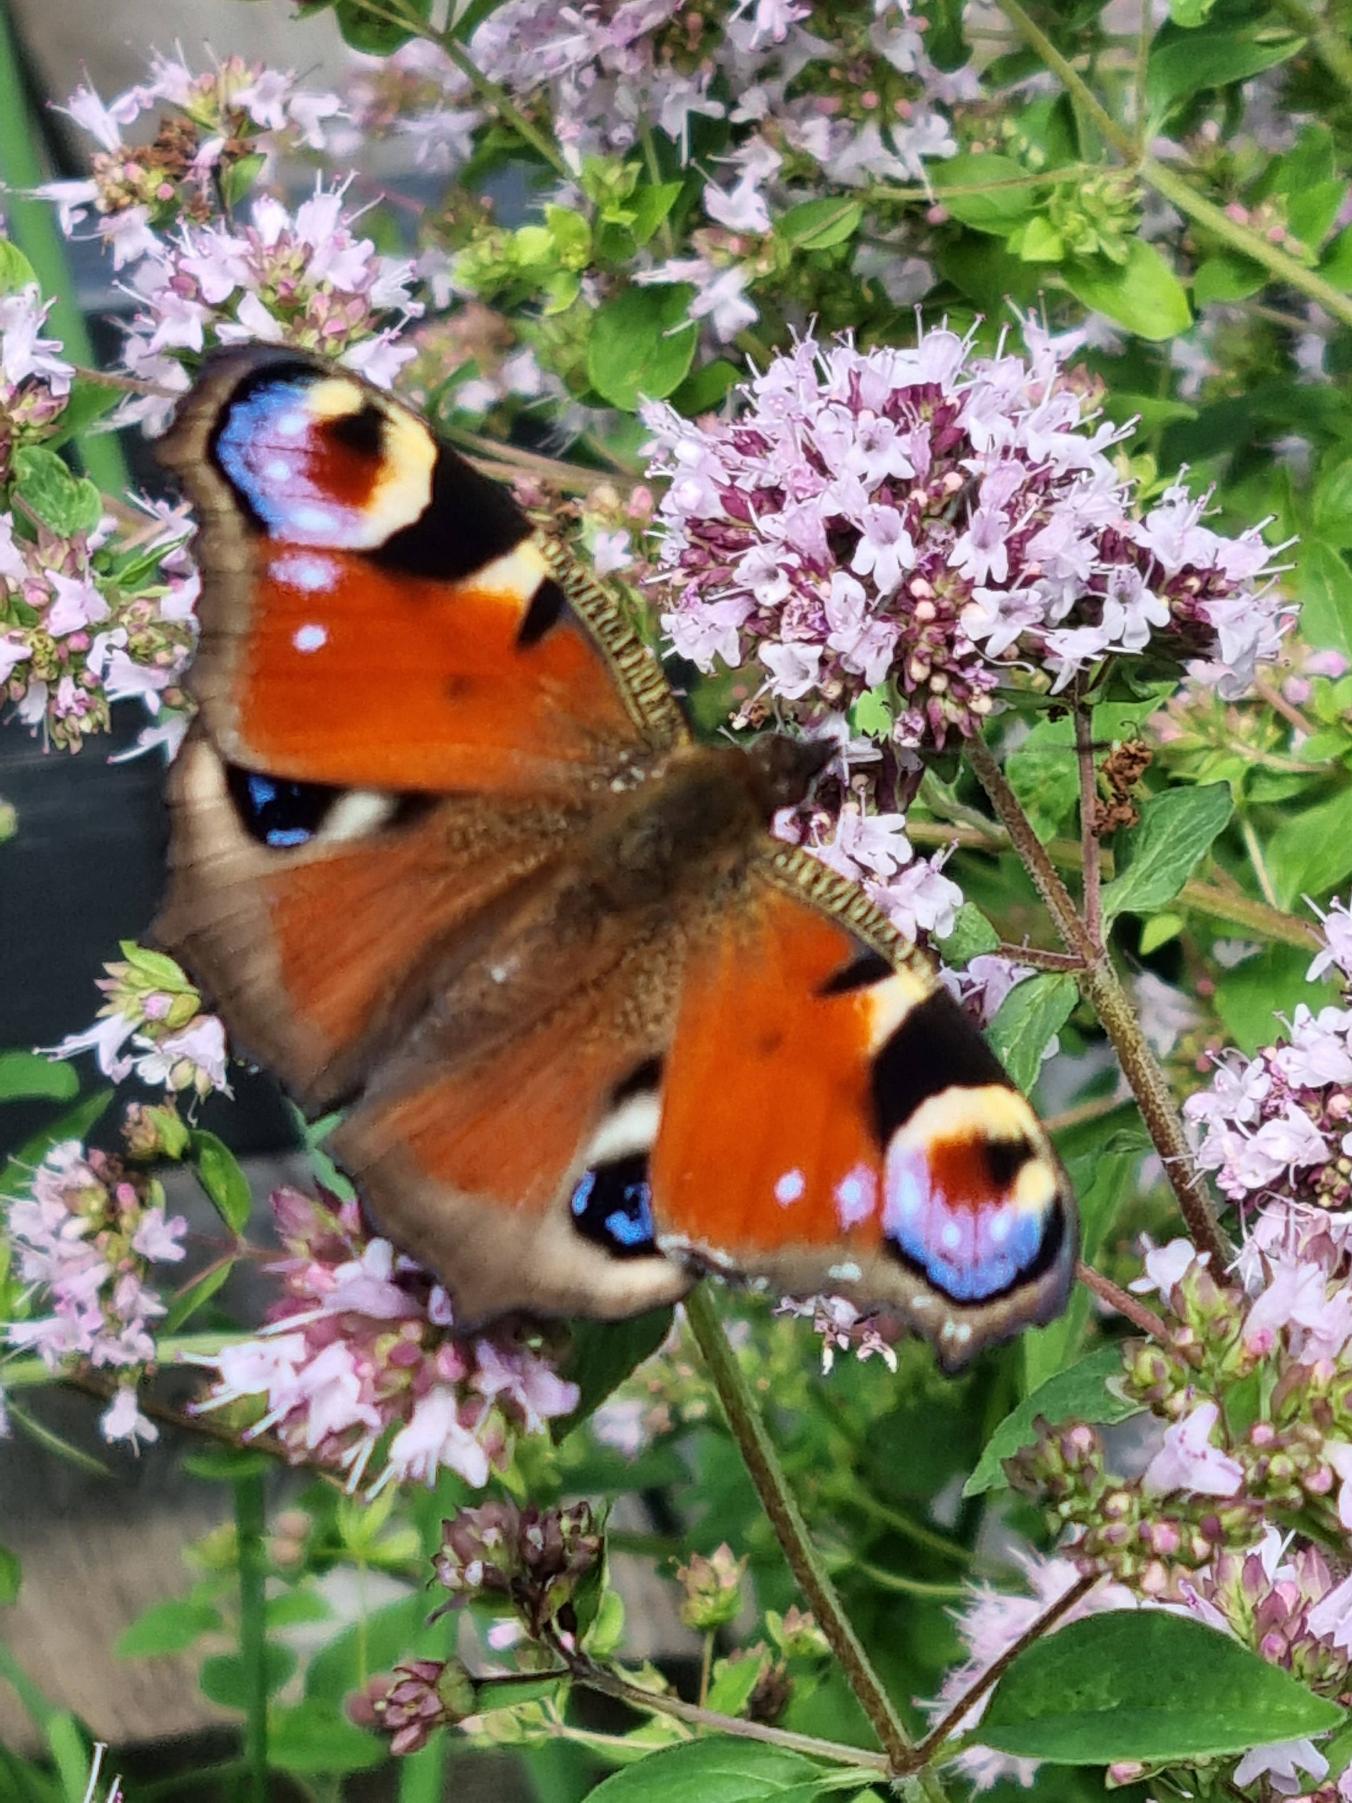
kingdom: Animalia
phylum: Arthropoda
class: Insecta
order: Lepidoptera
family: Nymphalidae
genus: Aglais
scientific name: Aglais io
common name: Dagpåfugleøje
